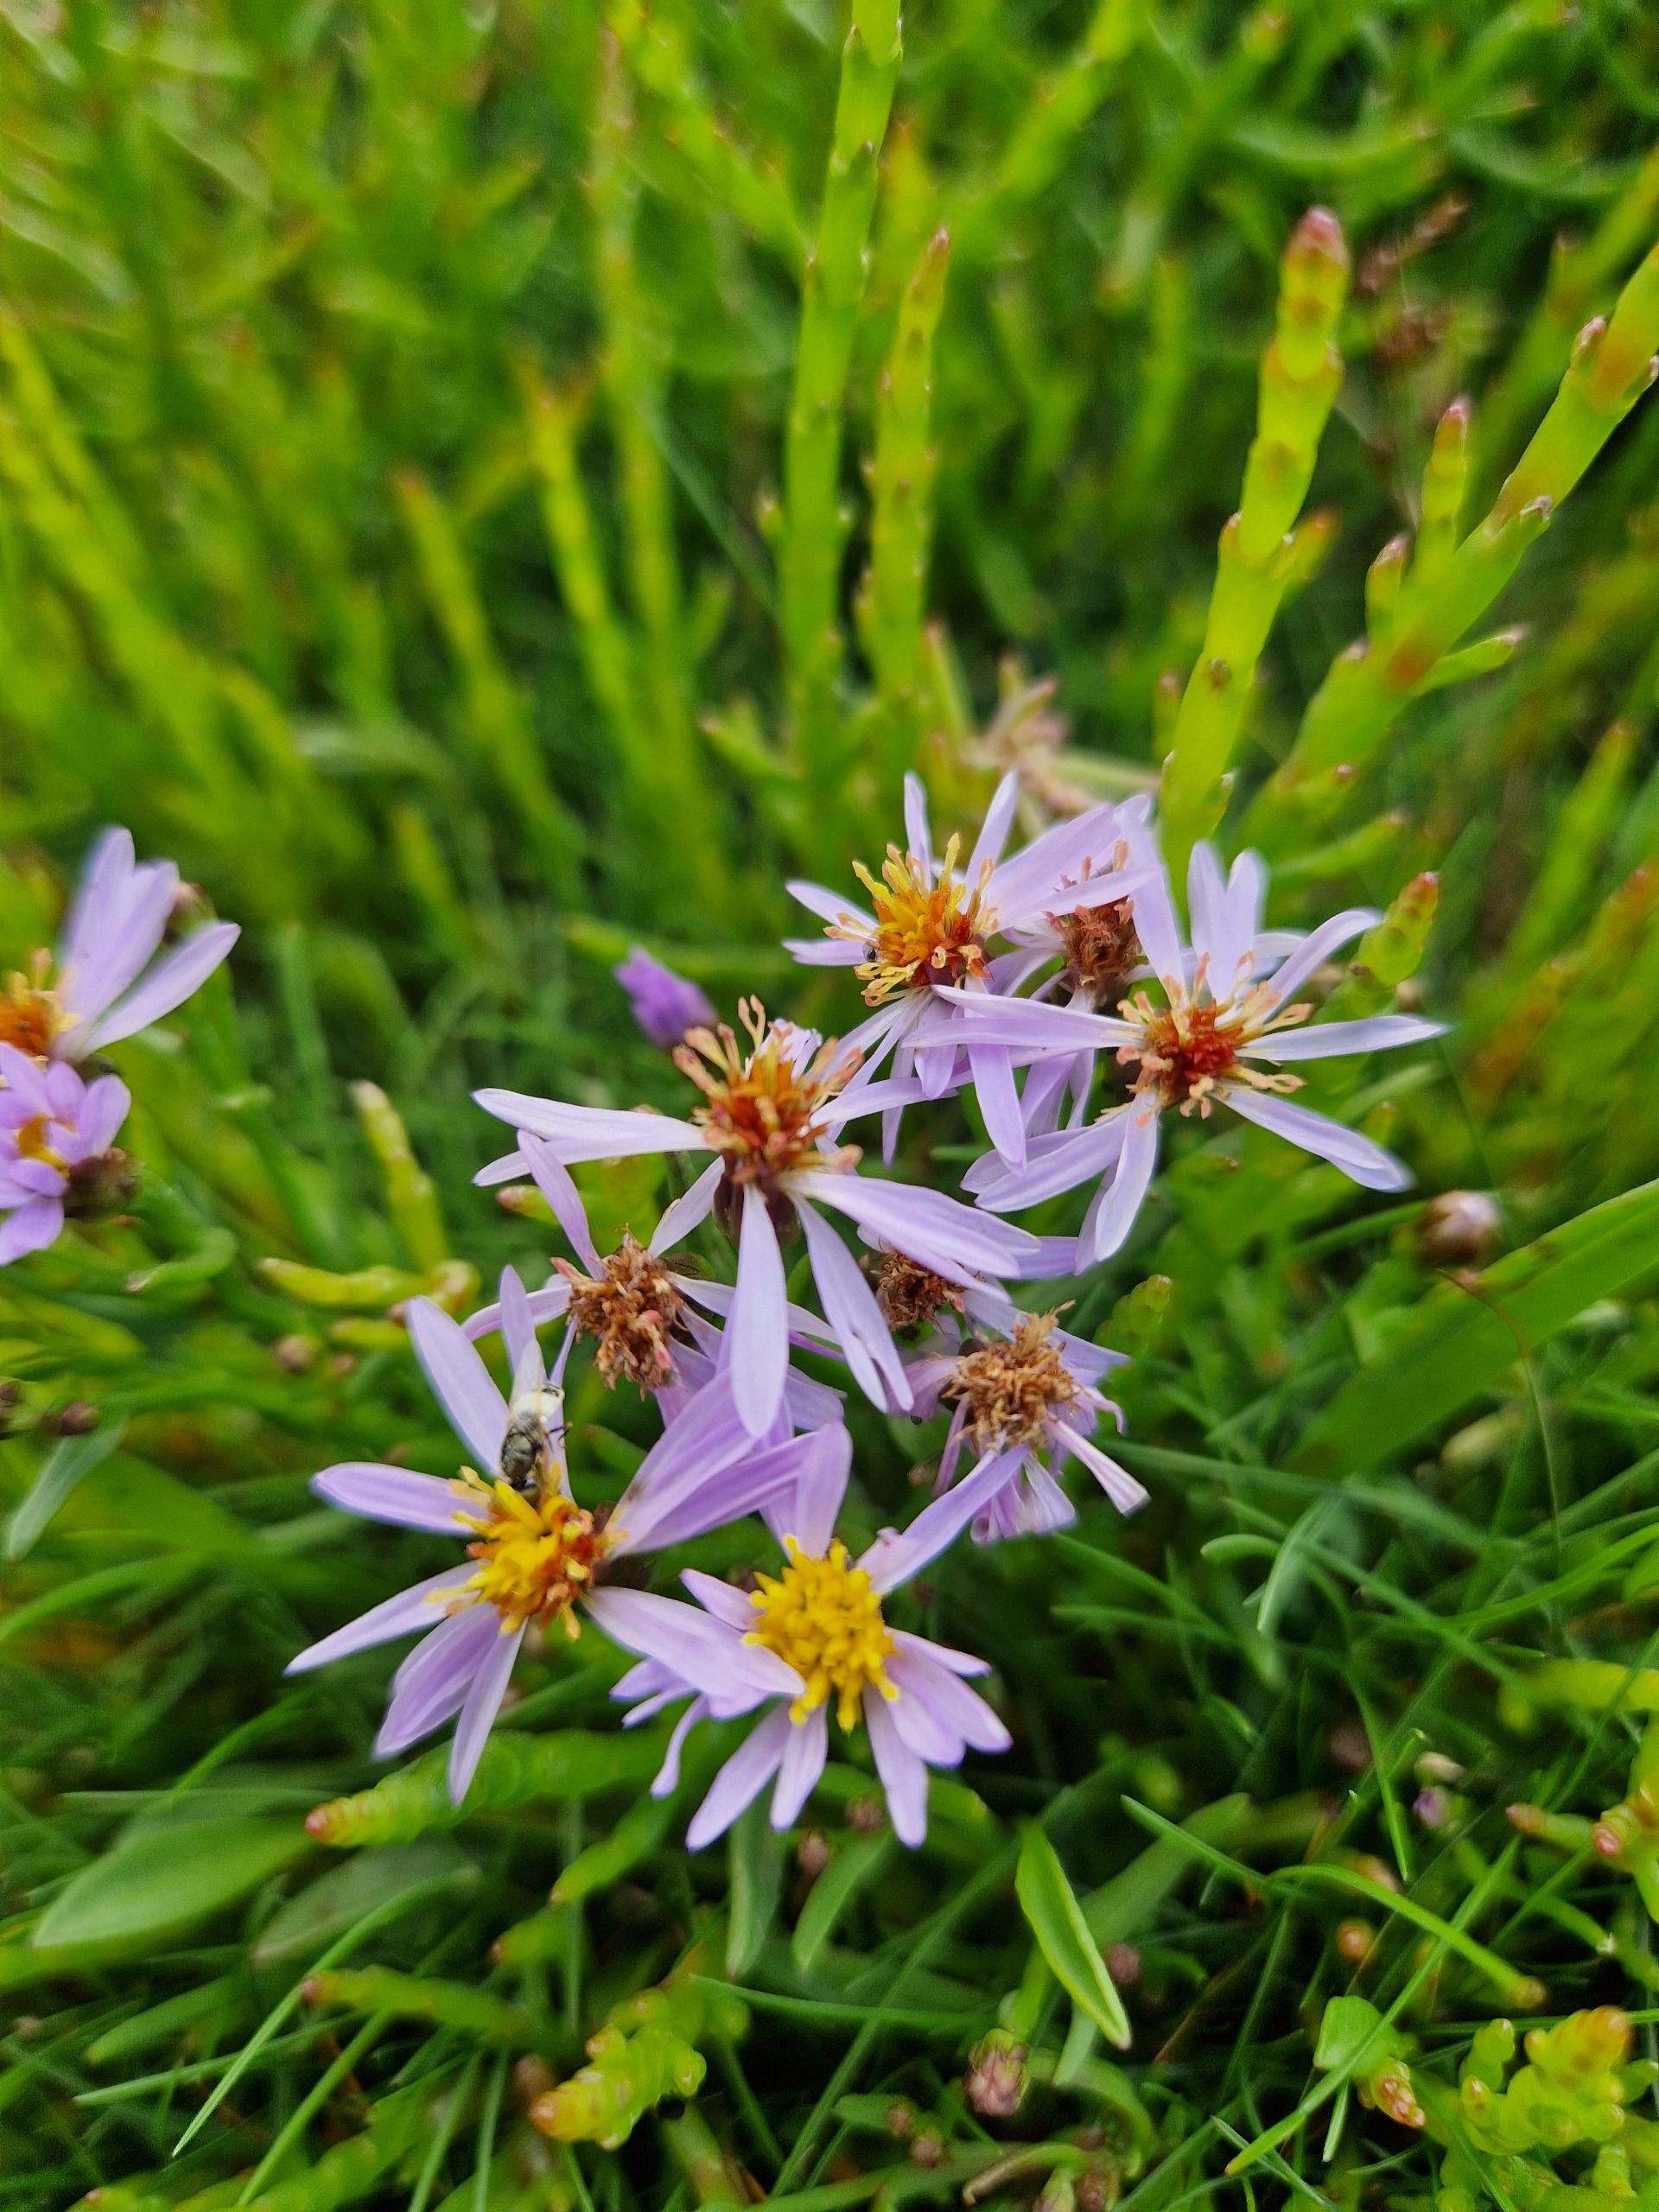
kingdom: Plantae
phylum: Tracheophyta
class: Magnoliopsida
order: Asterales
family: Asteraceae
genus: Tripolium
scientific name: Tripolium pannonicum
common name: Strandasters
